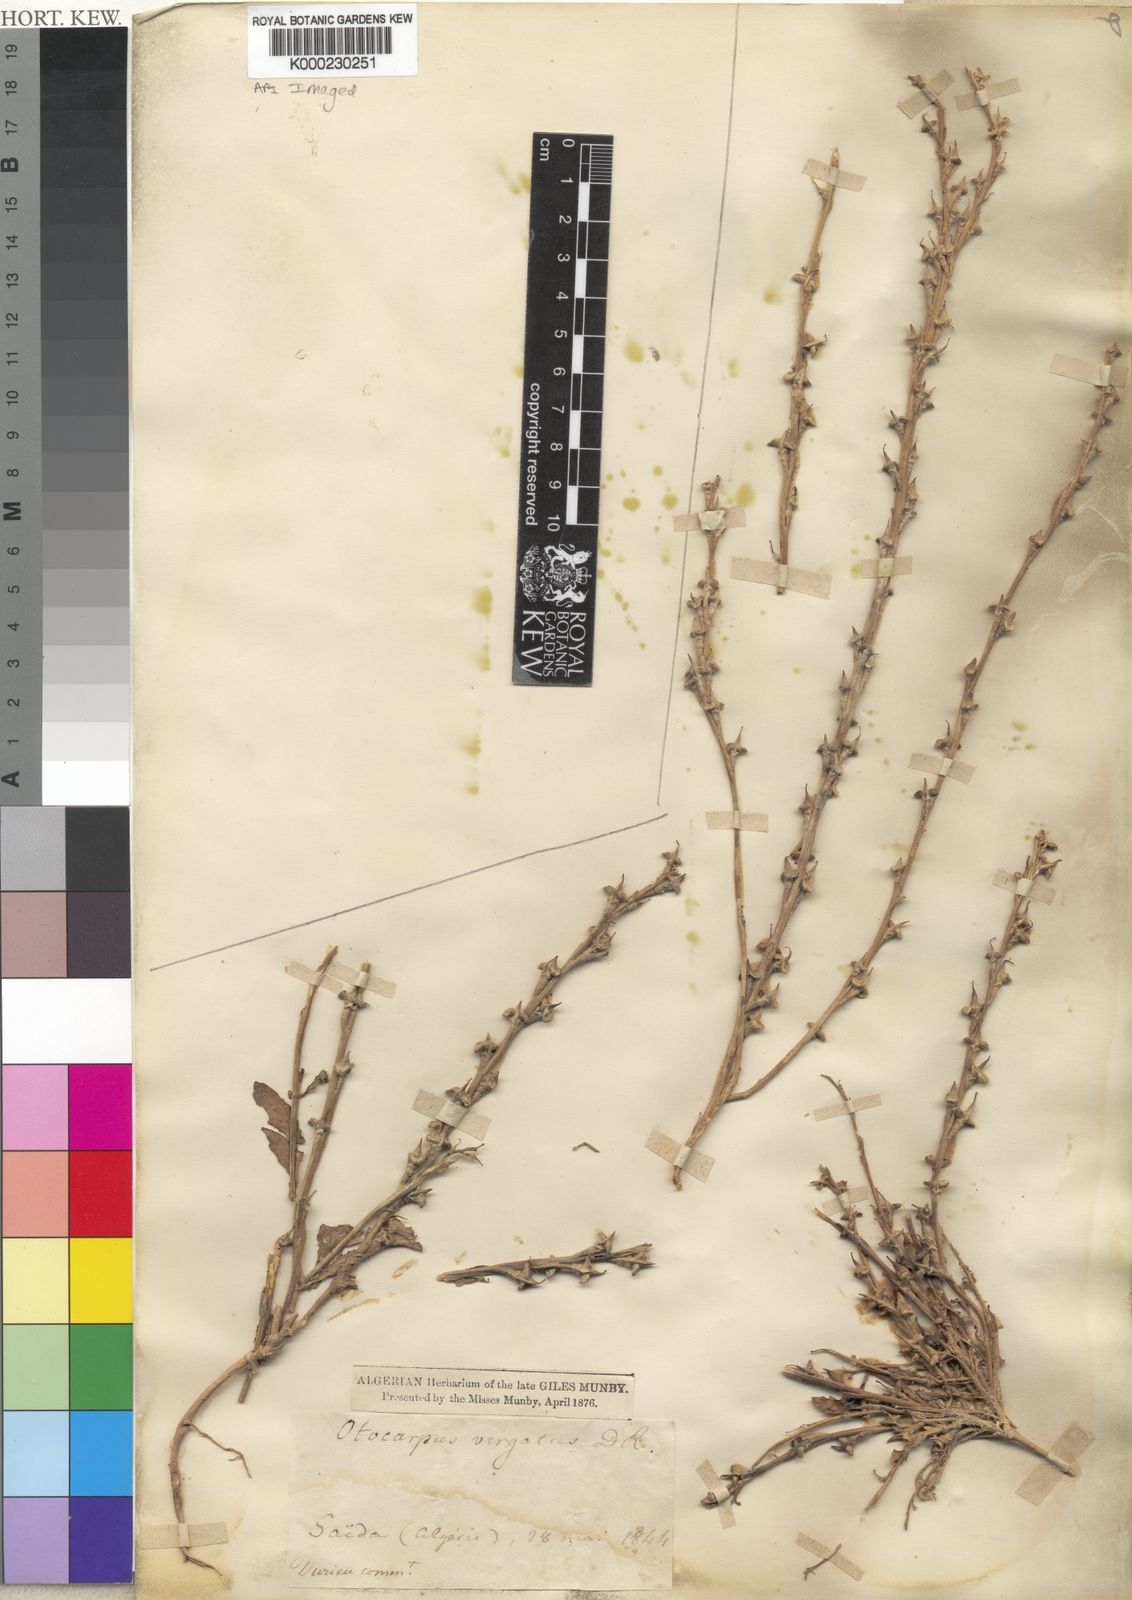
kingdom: Plantae
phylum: Tracheophyta
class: Magnoliopsida
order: Brassicales
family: Brassicaceae
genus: Otocarpus
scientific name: Otocarpus virgatus
